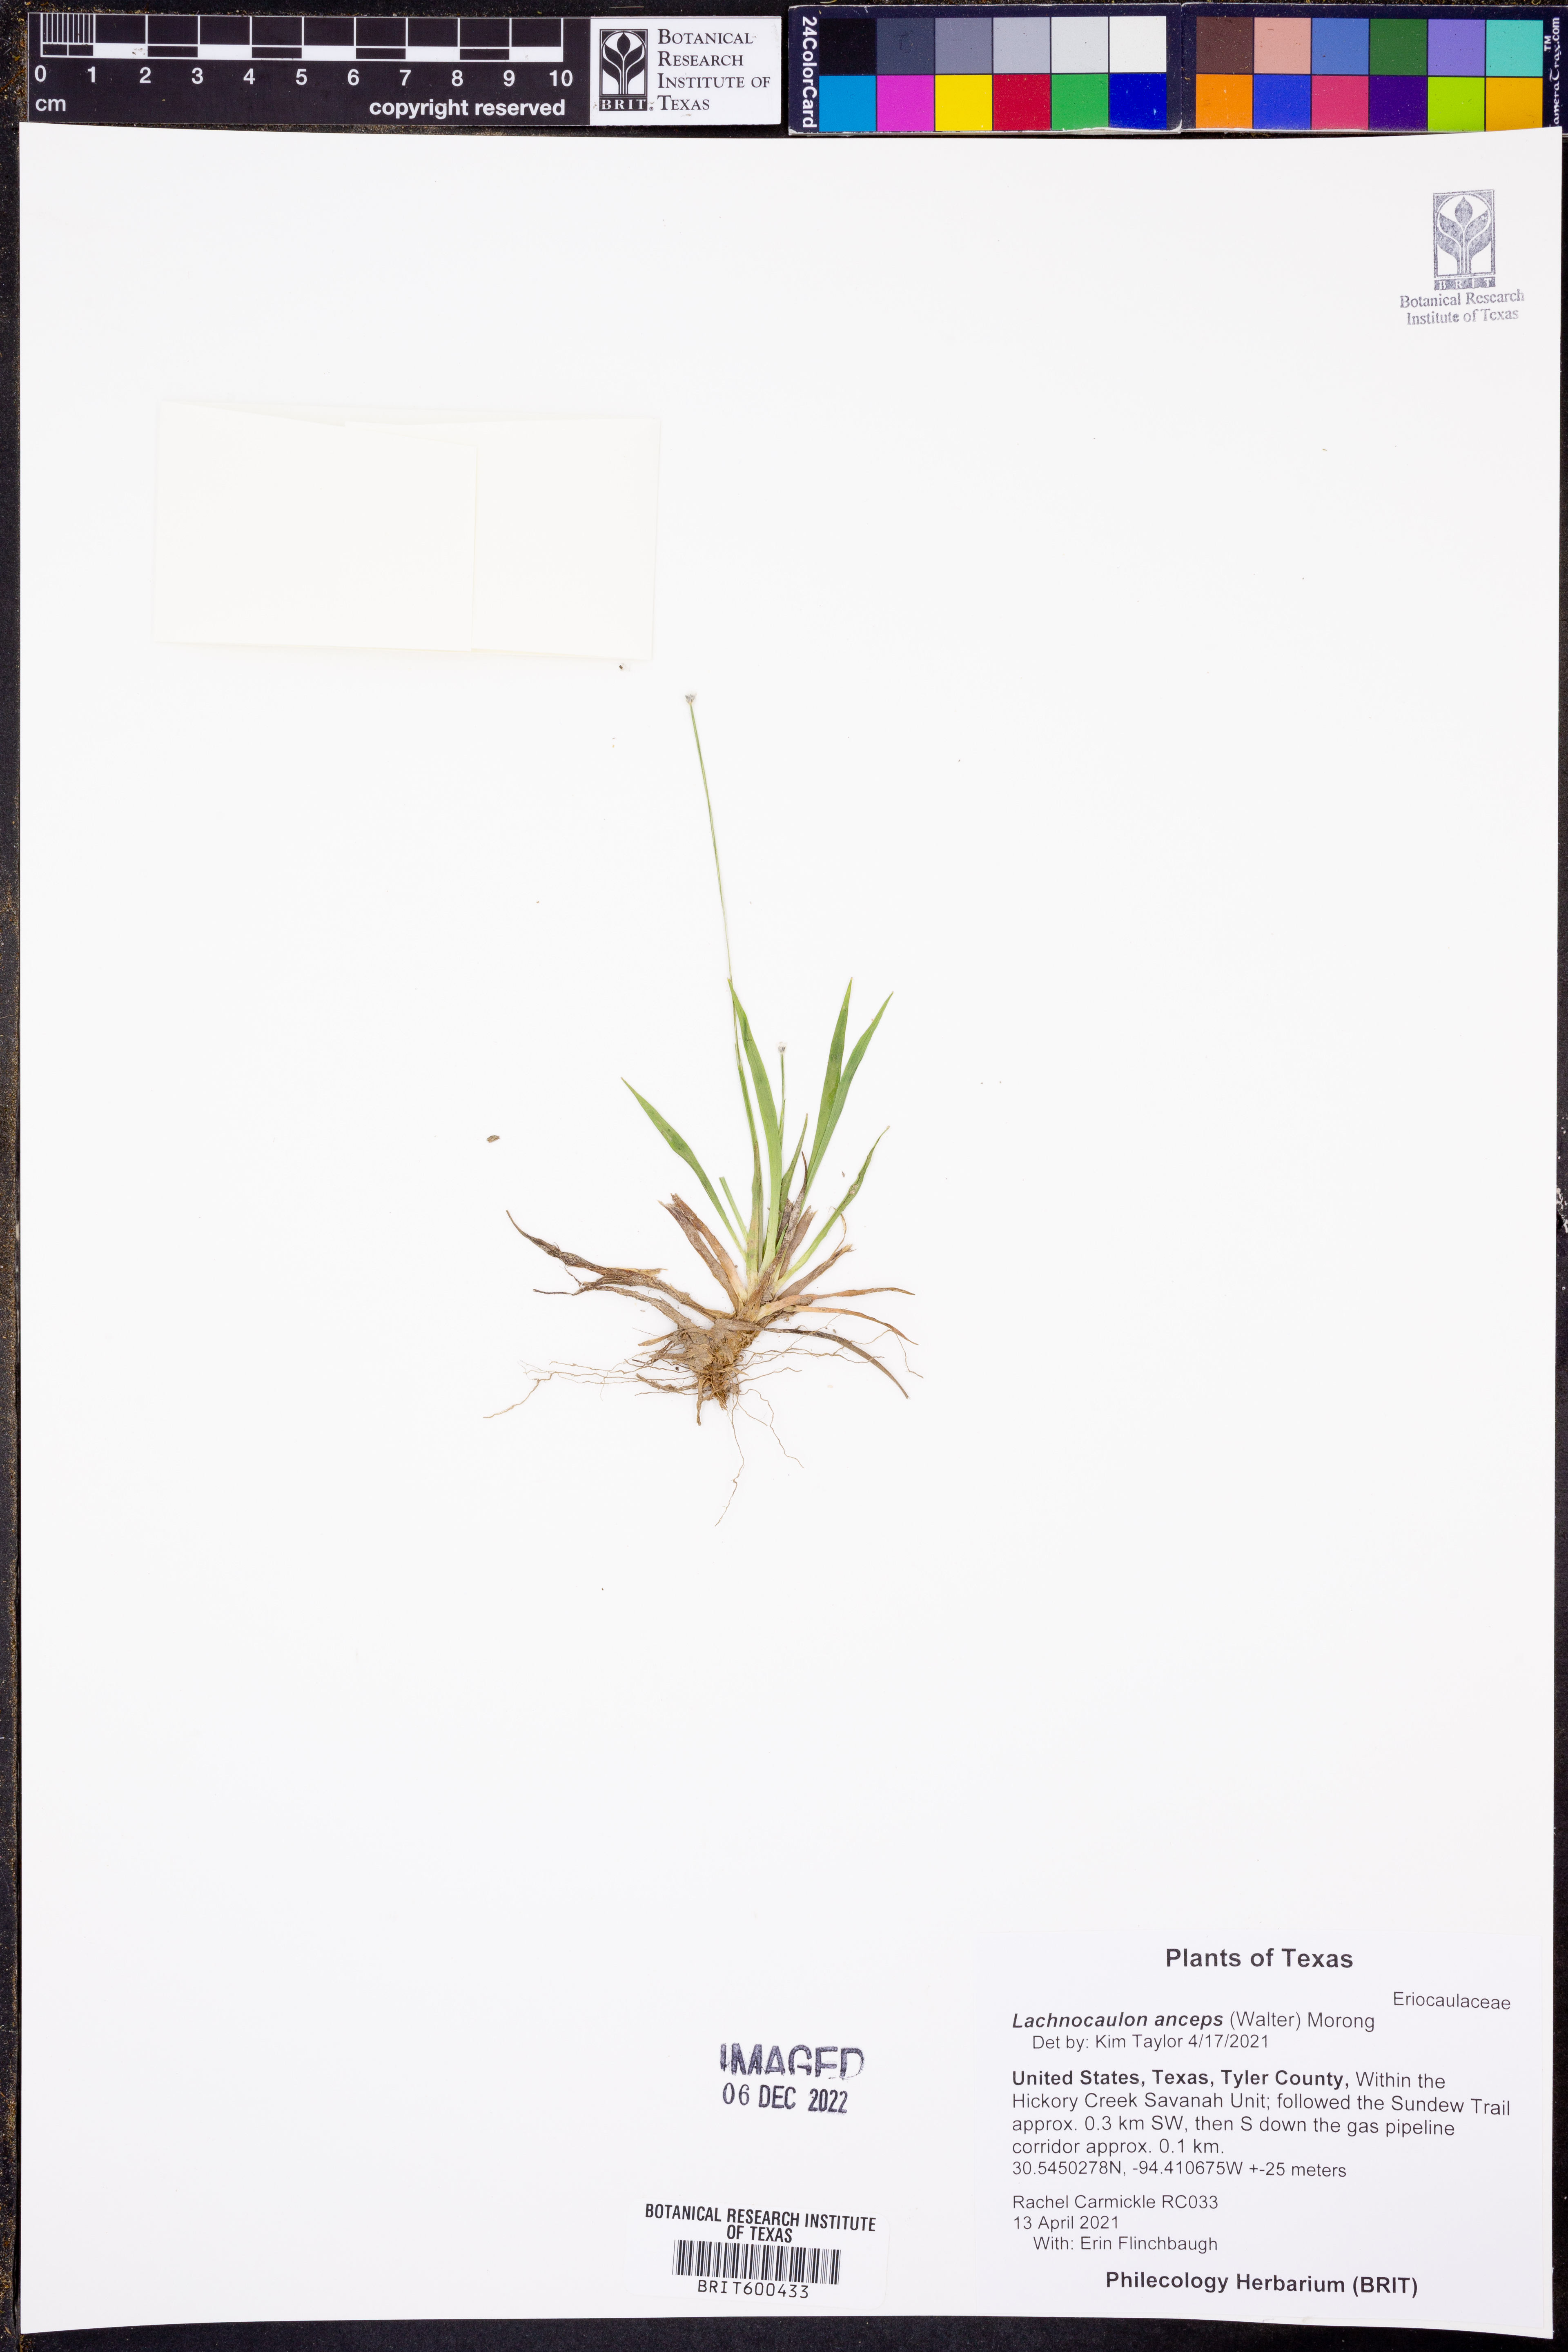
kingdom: Plantae
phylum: Tracheophyta
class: Liliopsida
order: Poales
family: Eriocaulaceae
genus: Paepalanthus
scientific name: Paepalanthus anceps
